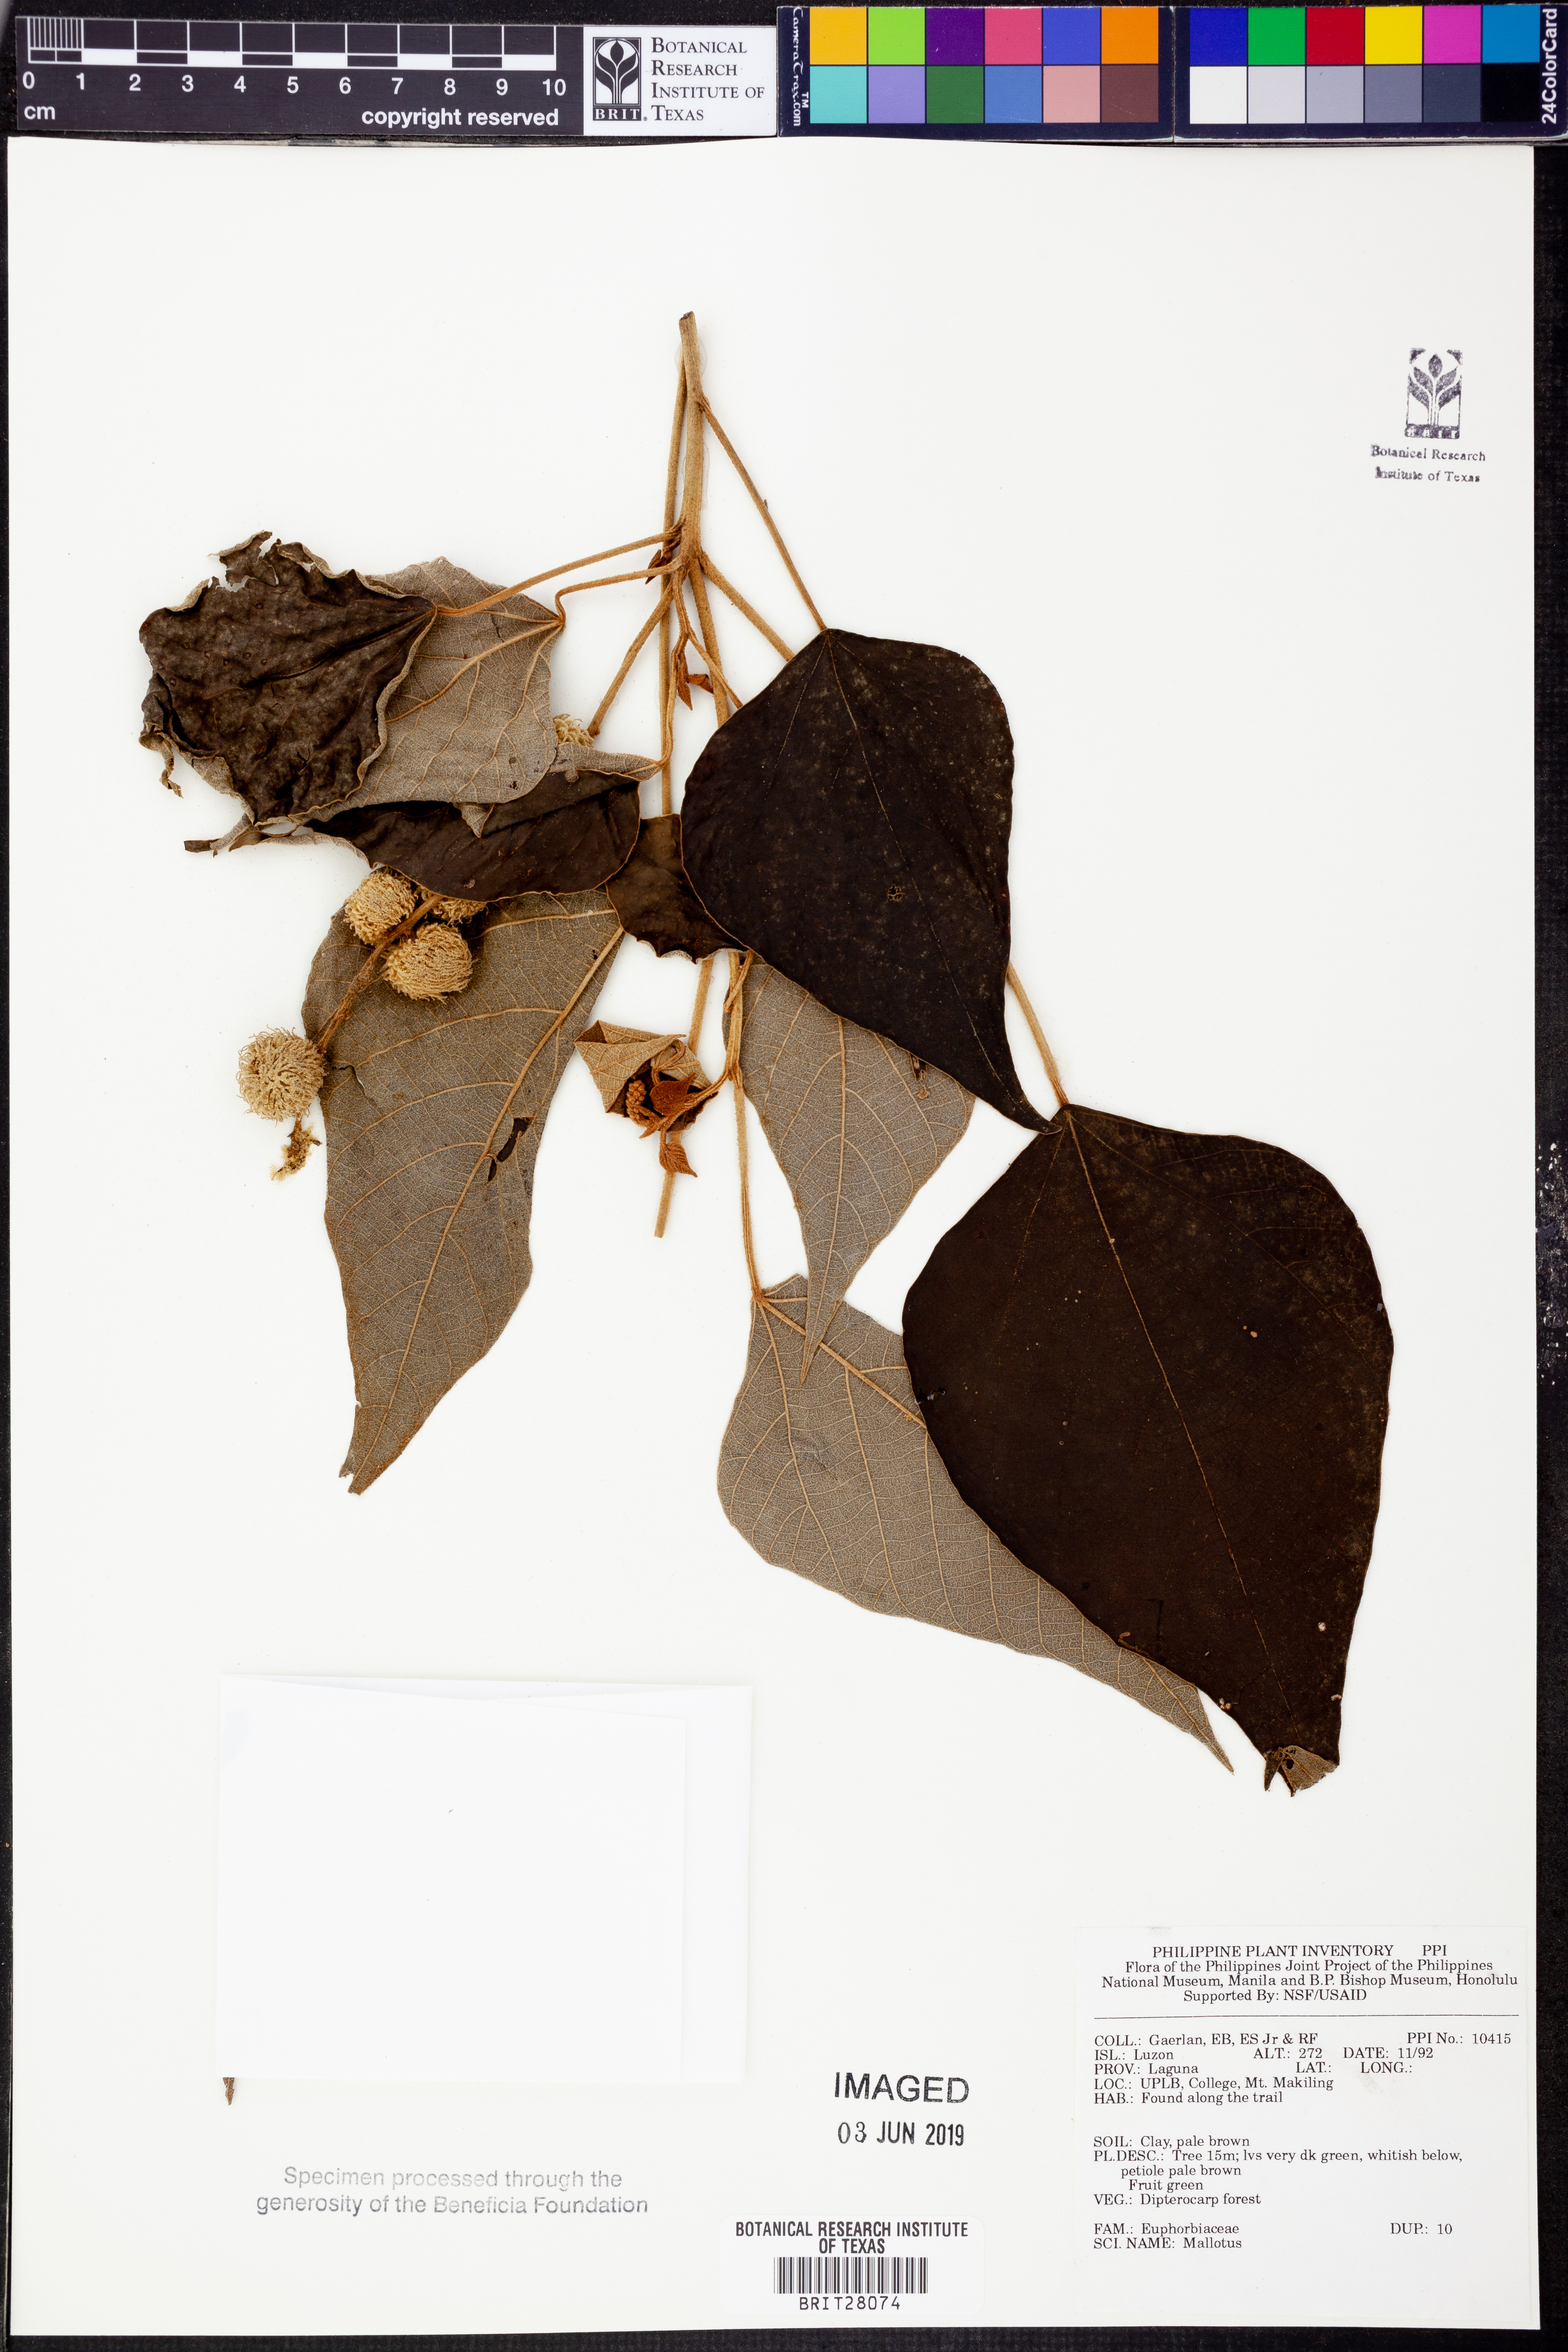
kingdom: Plantae
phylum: Tracheophyta
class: Magnoliopsida
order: Malpighiales
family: Euphorbiaceae
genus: Mallotus
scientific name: Mallotus
